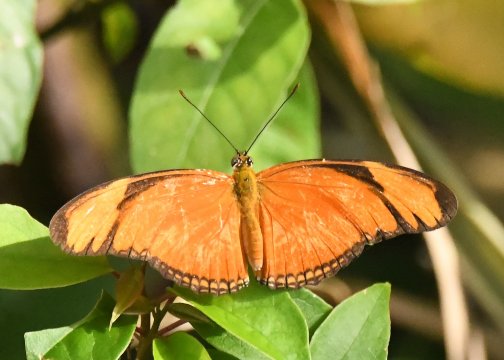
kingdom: Animalia
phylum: Arthropoda
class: Insecta
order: Lepidoptera
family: Nymphalidae
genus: Dryas
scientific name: Dryas iulia
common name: Julia
